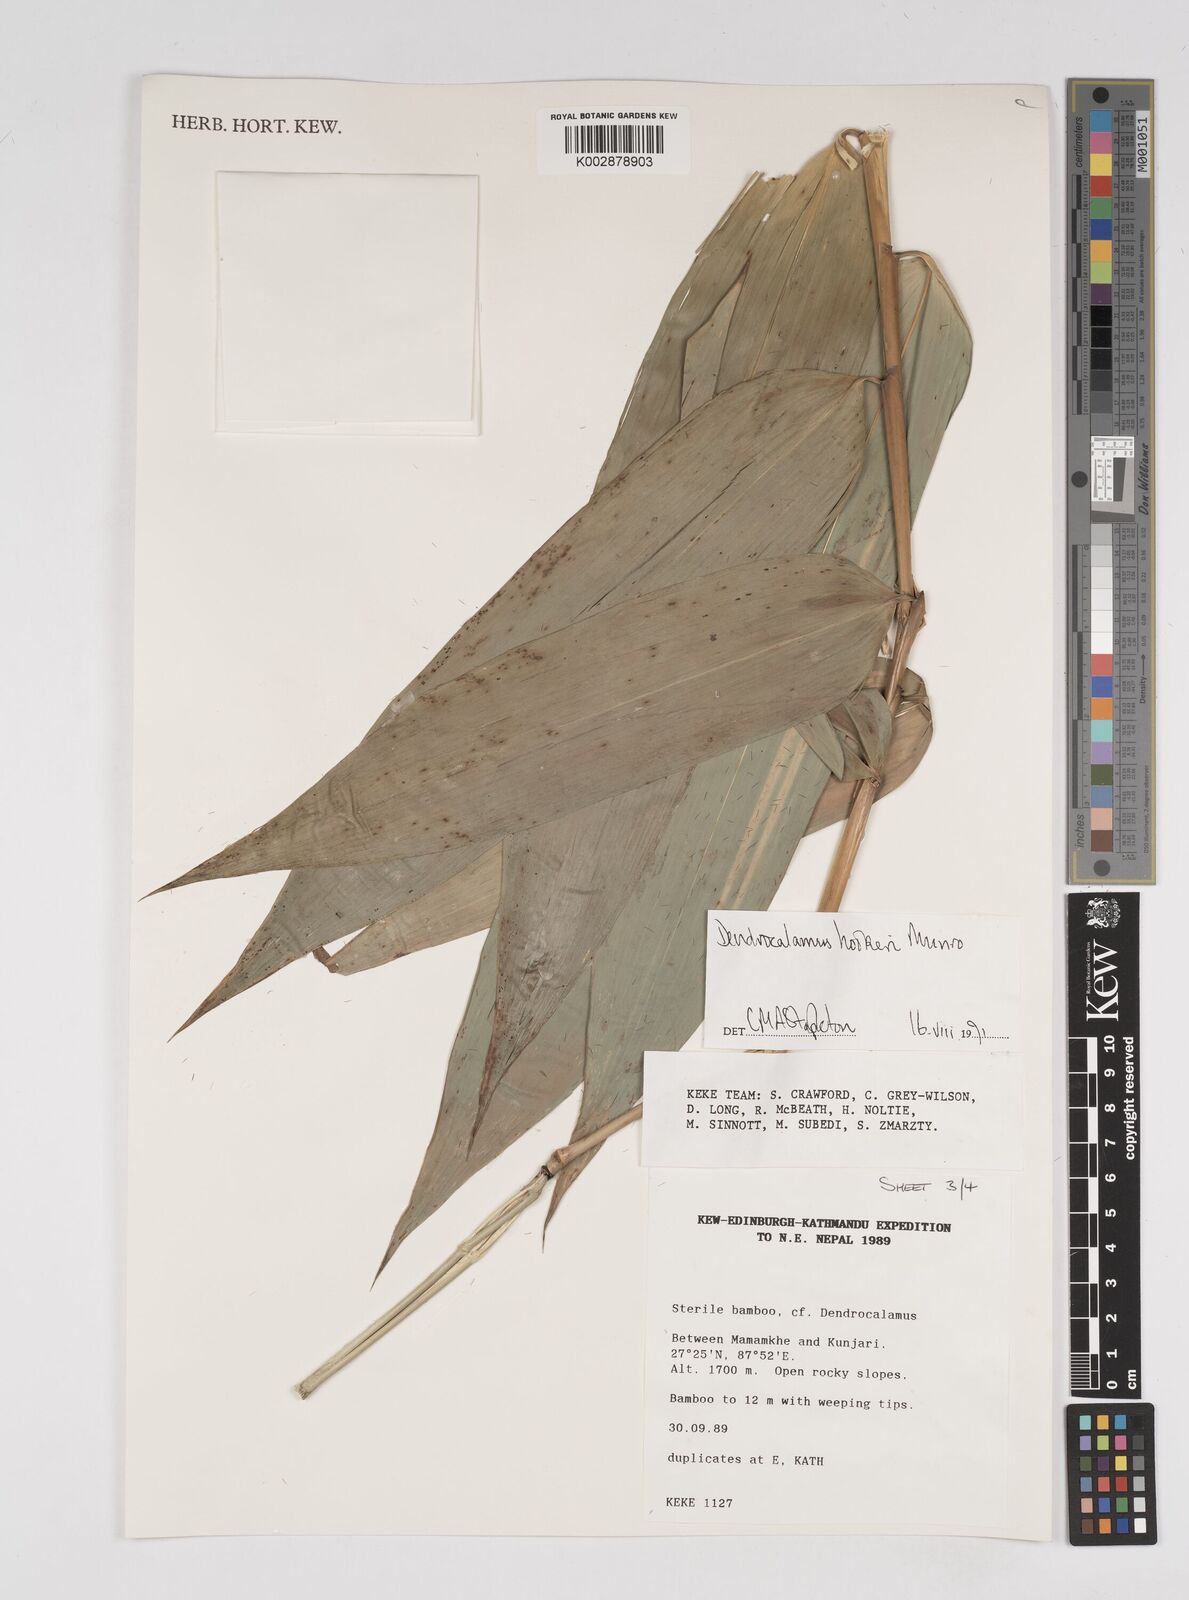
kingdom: Plantae
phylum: Tracheophyta
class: Liliopsida
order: Poales
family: Poaceae
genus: Dendrocalamus
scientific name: Dendrocalamus hookeri
